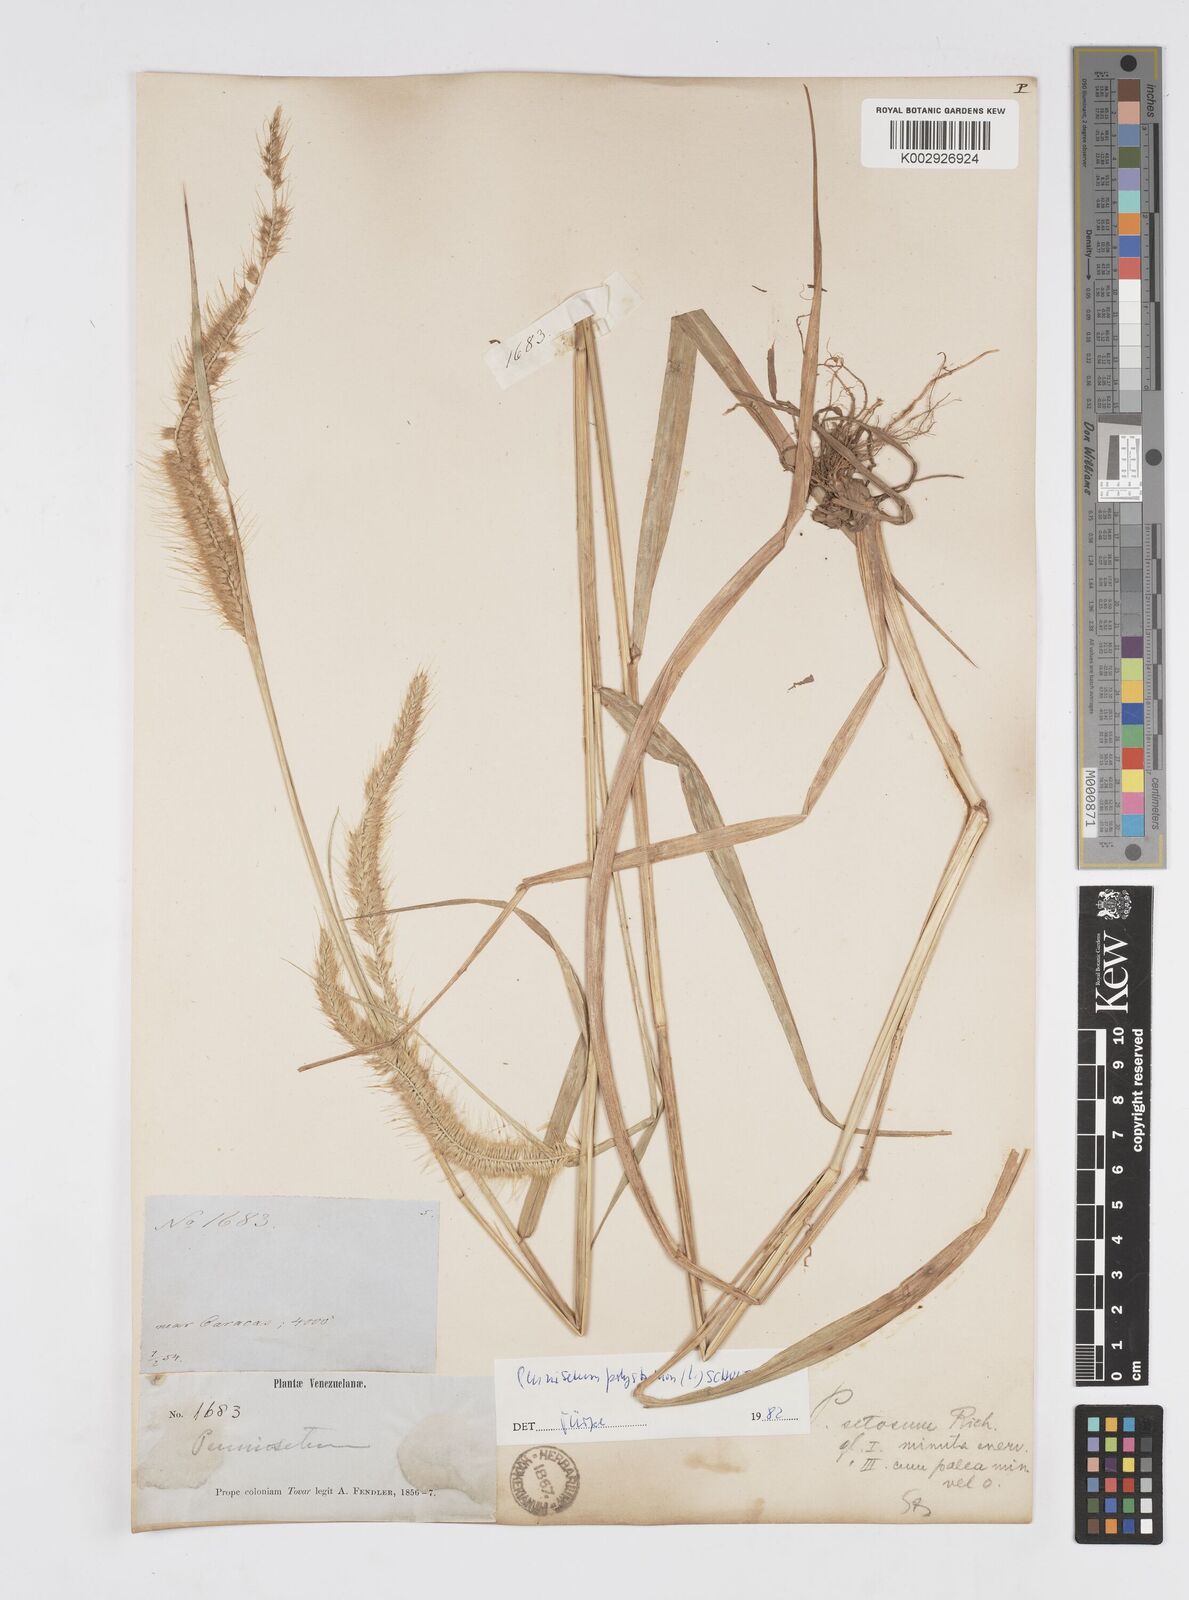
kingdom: Plantae
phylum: Tracheophyta
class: Liliopsida
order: Poales
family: Poaceae
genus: Setaria
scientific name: Setaria parviflora
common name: Knotroot bristle-grass
